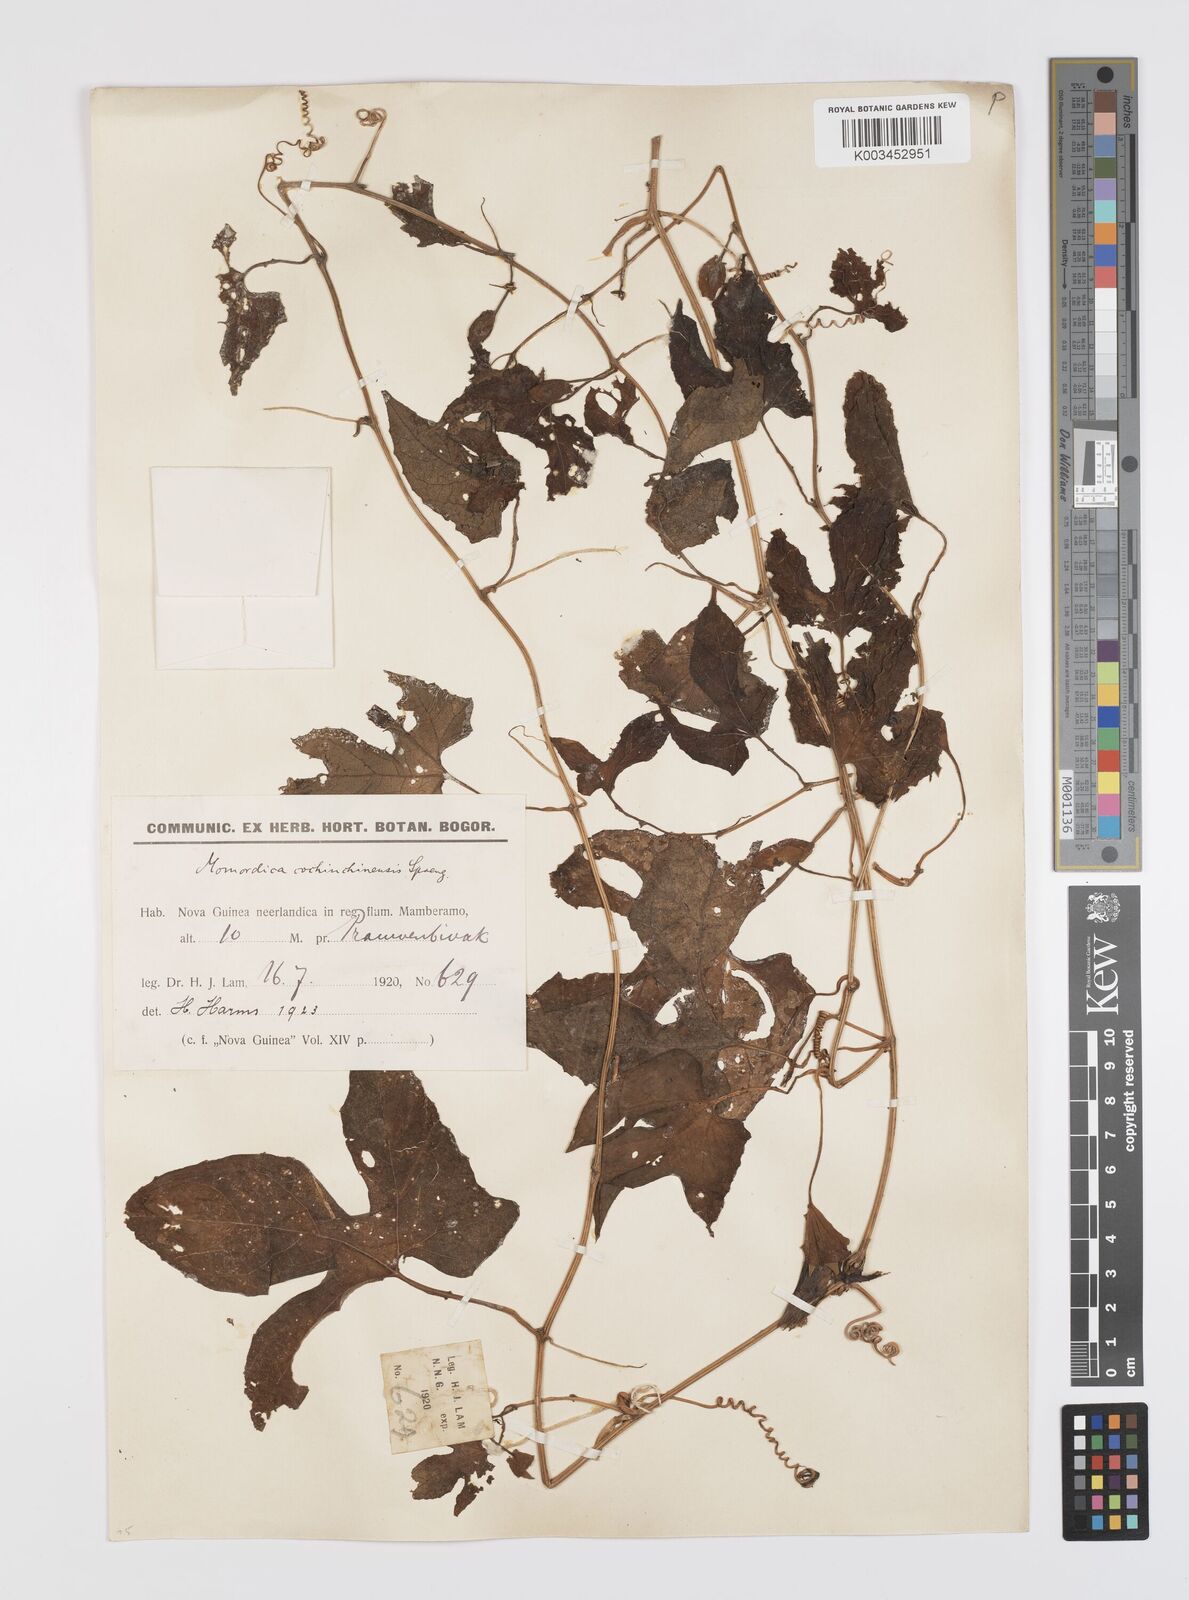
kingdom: Plantae
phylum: Tracheophyta
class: Magnoliopsida
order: Cucurbitales
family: Cucurbitaceae
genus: Momordica
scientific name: Momordica cochinchinensis
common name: Chinese bitter-cucumber
